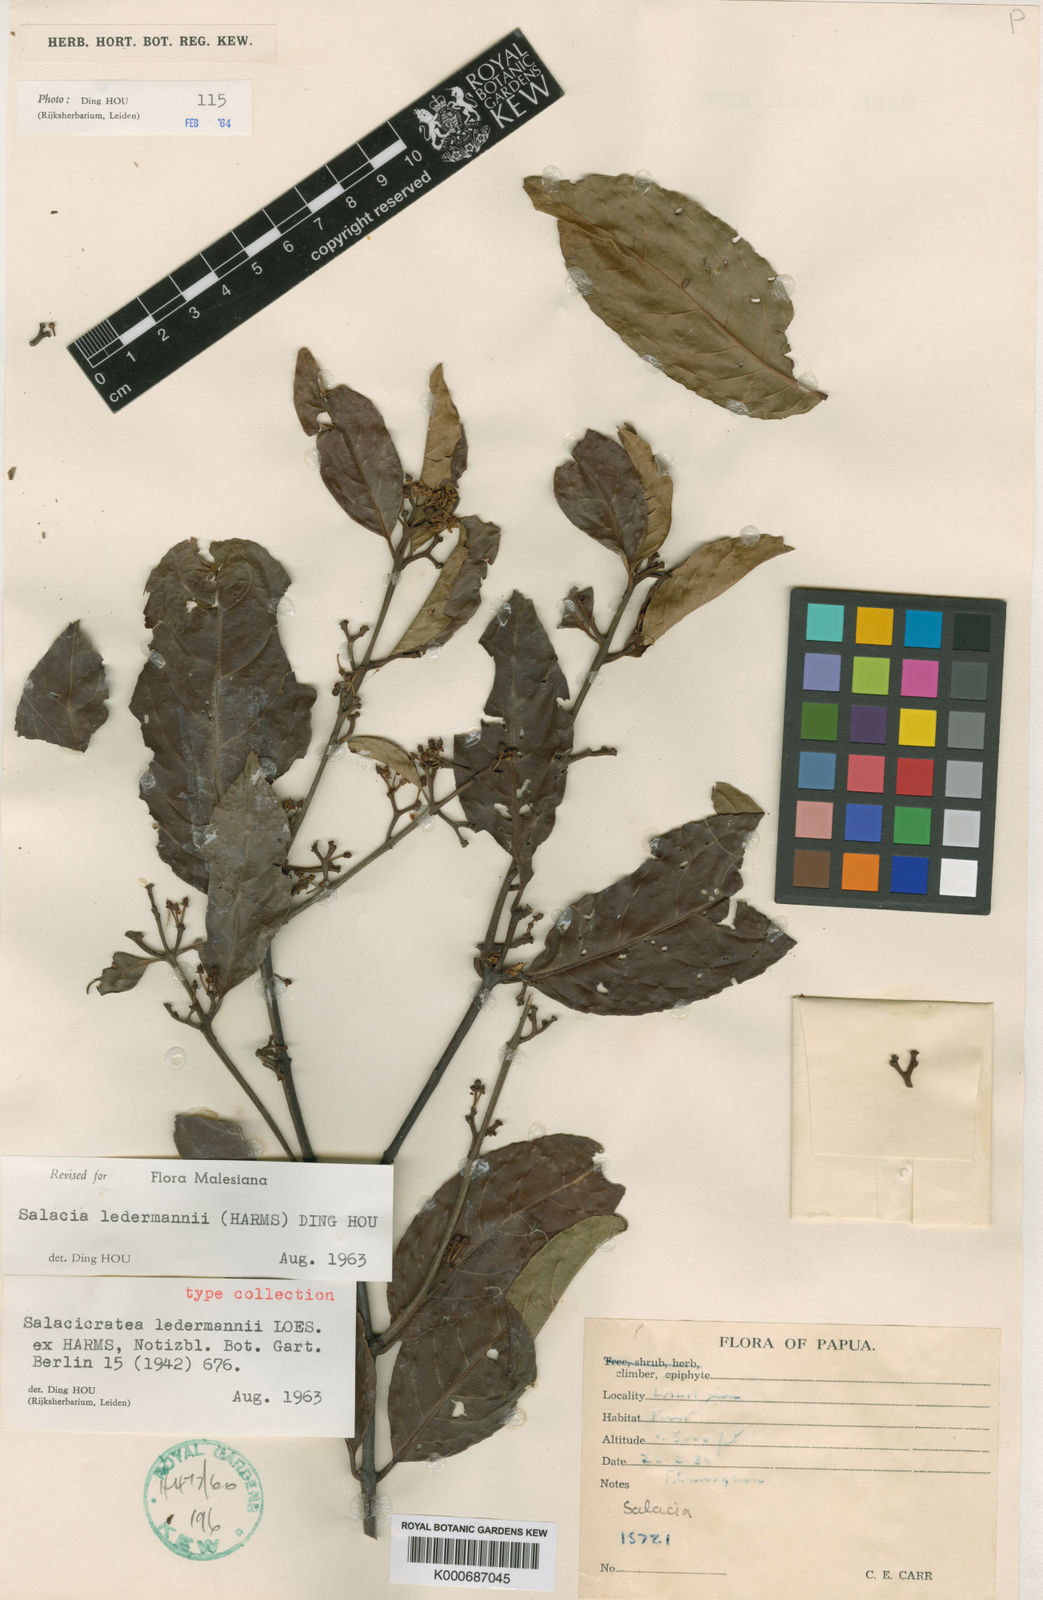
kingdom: Plantae
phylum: Tracheophyta
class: Magnoliopsida
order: Celastrales
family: Celastraceae
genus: Salacia
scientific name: Salacia ledermannii
